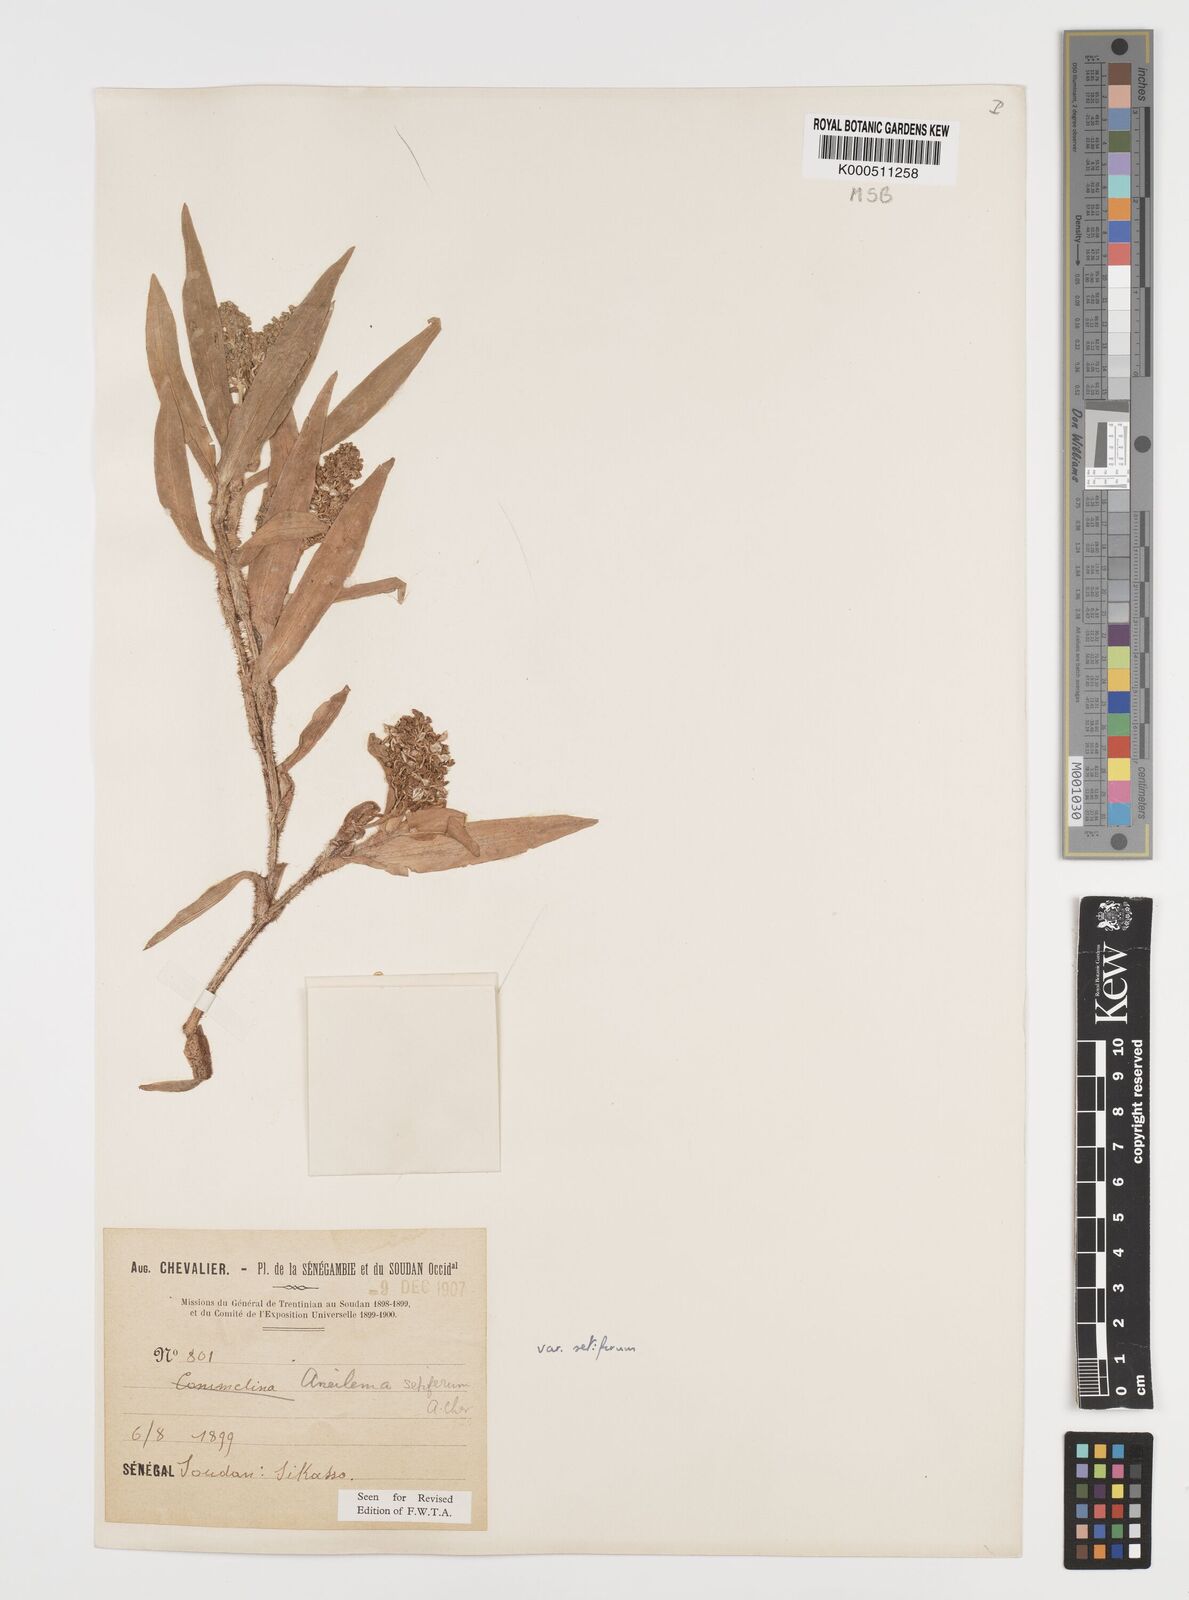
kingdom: Plantae
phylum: Tracheophyta
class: Liliopsida
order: Commelinales
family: Commelinaceae
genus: Aneilema
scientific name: Aneilema setiferum
